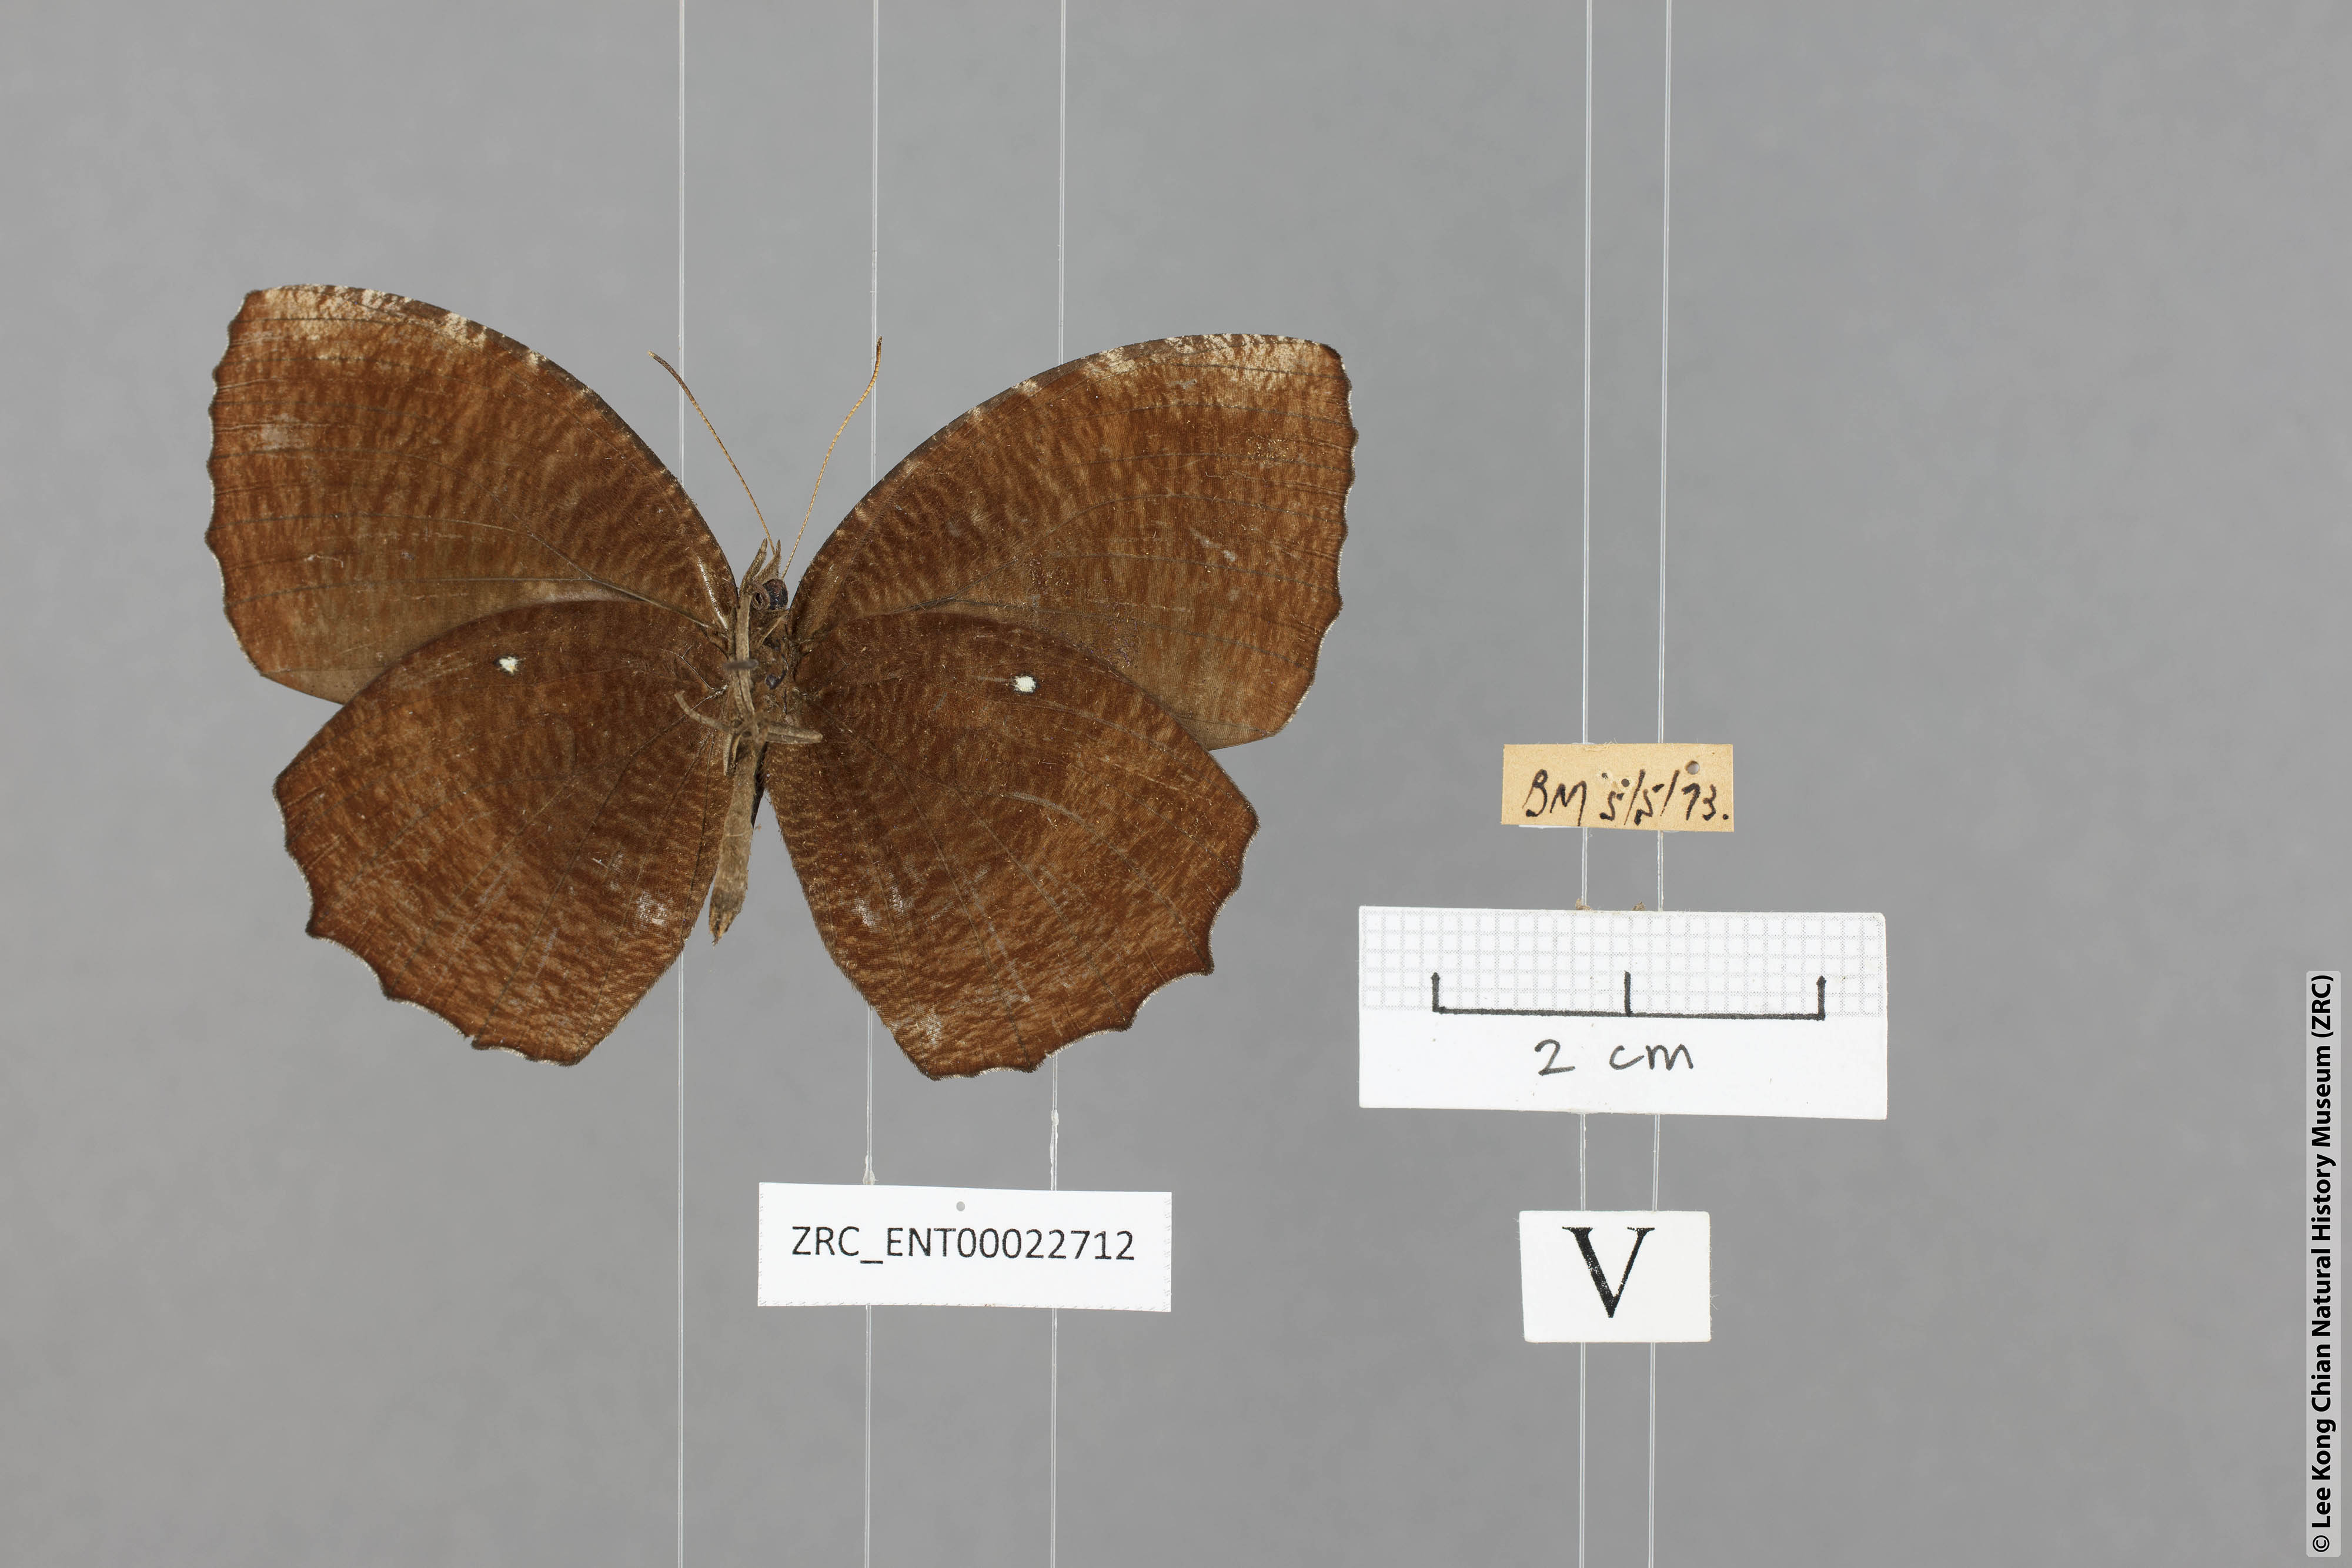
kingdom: Animalia
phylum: Arthropoda
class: Insecta
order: Lepidoptera
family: Nymphalidae
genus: Elymnias
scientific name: Elymnias hypermnestra
